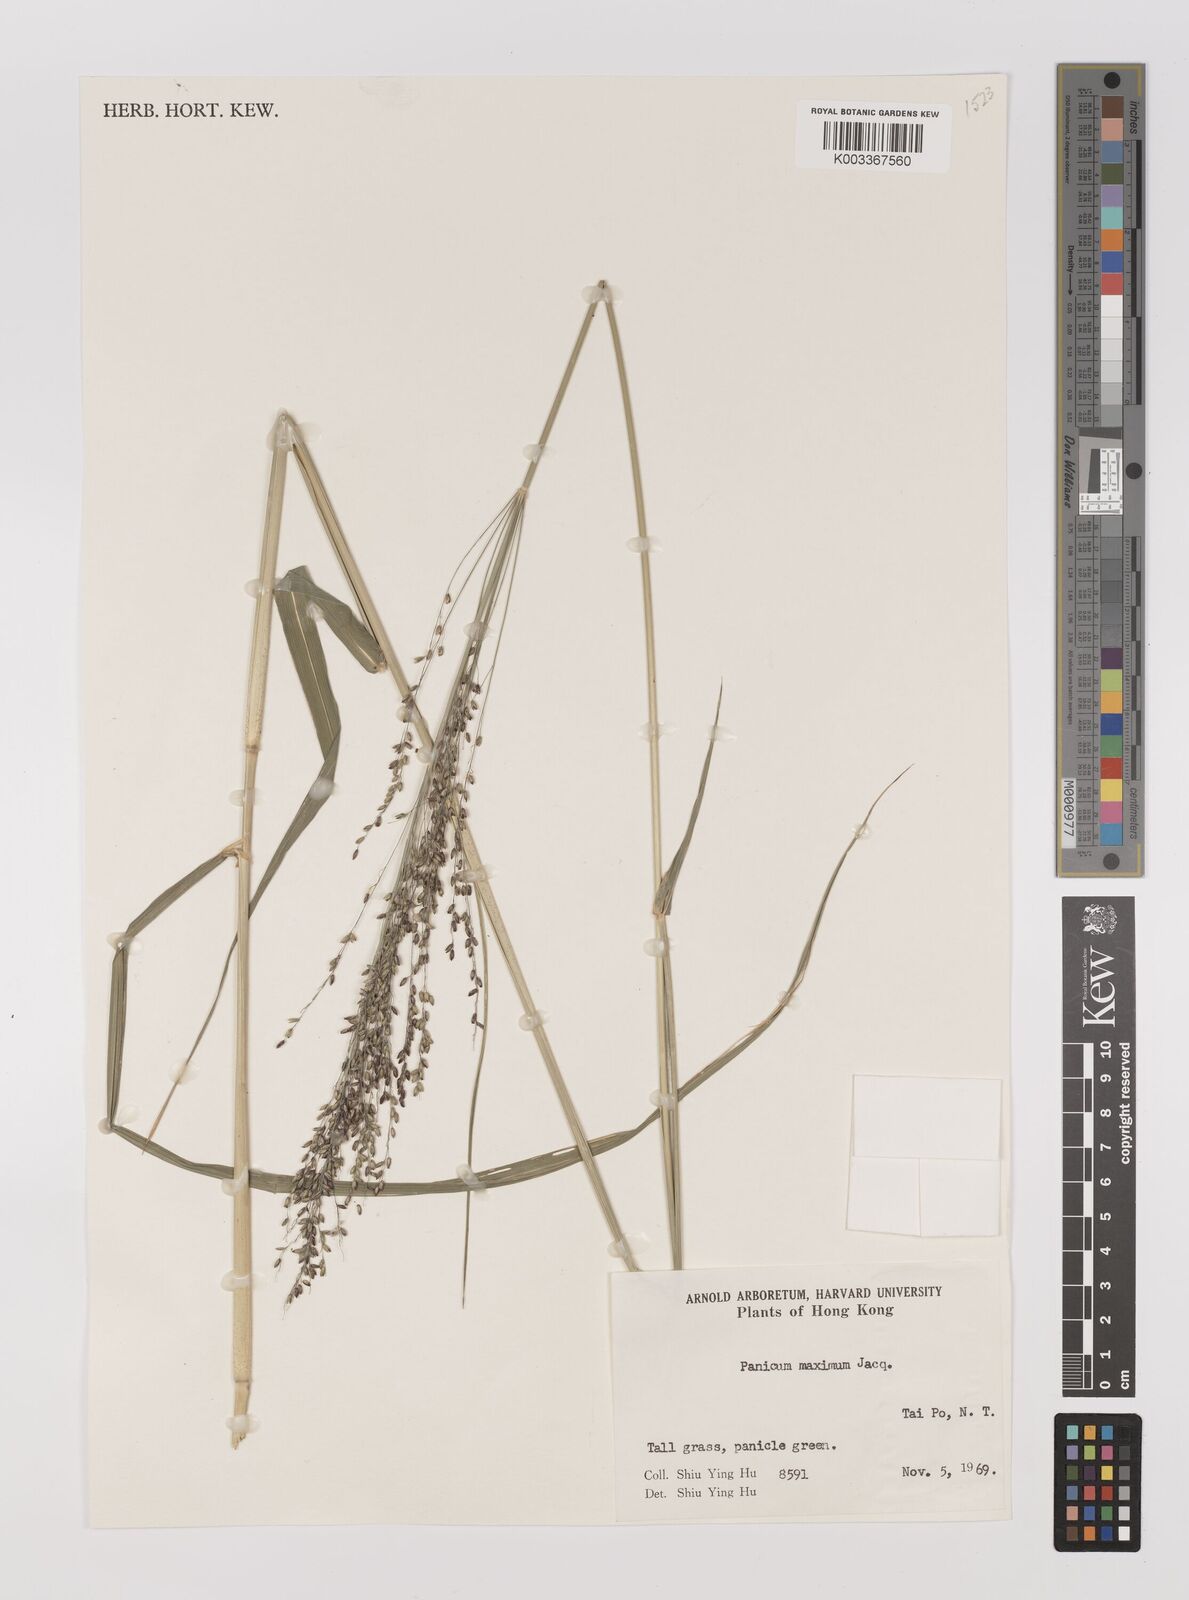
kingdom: Plantae
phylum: Tracheophyta
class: Liliopsida
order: Poales
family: Poaceae
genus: Megathyrsus
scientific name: Megathyrsus maximus
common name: Guineagrass
